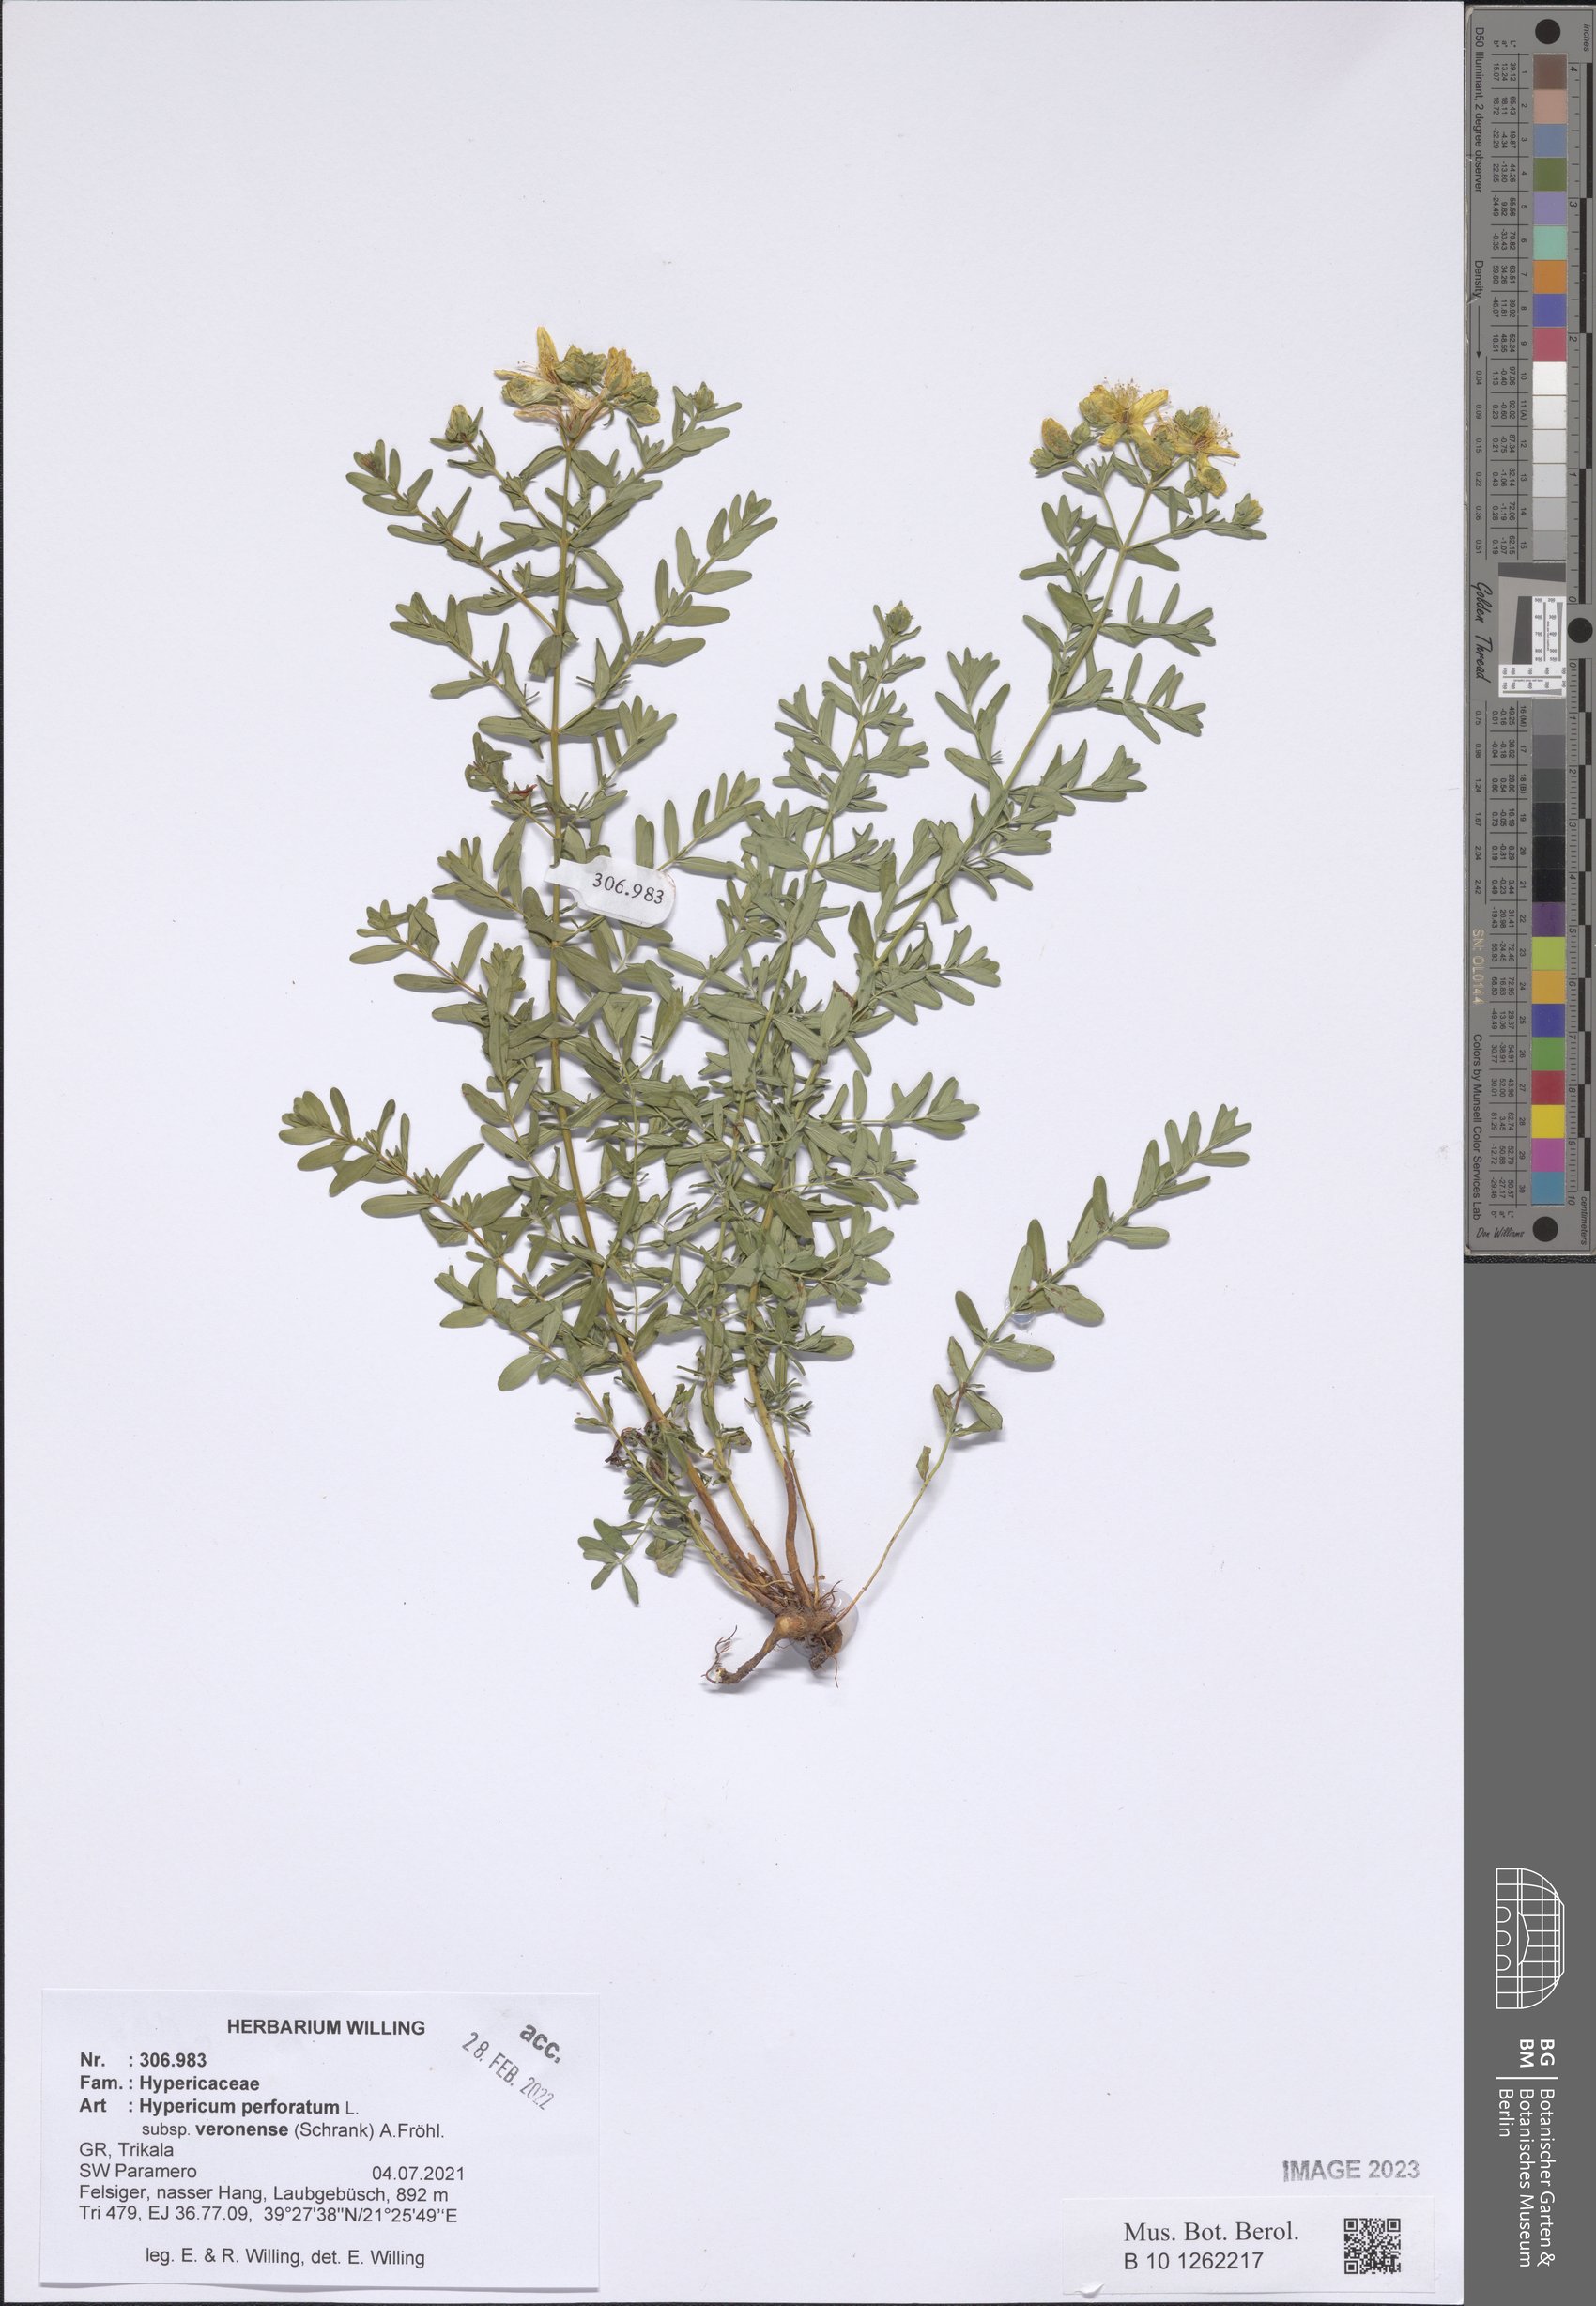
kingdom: Plantae
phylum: Tracheophyta
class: Magnoliopsida
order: Malpighiales
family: Hypericaceae
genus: Hypericum
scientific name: Hypericum veronense
